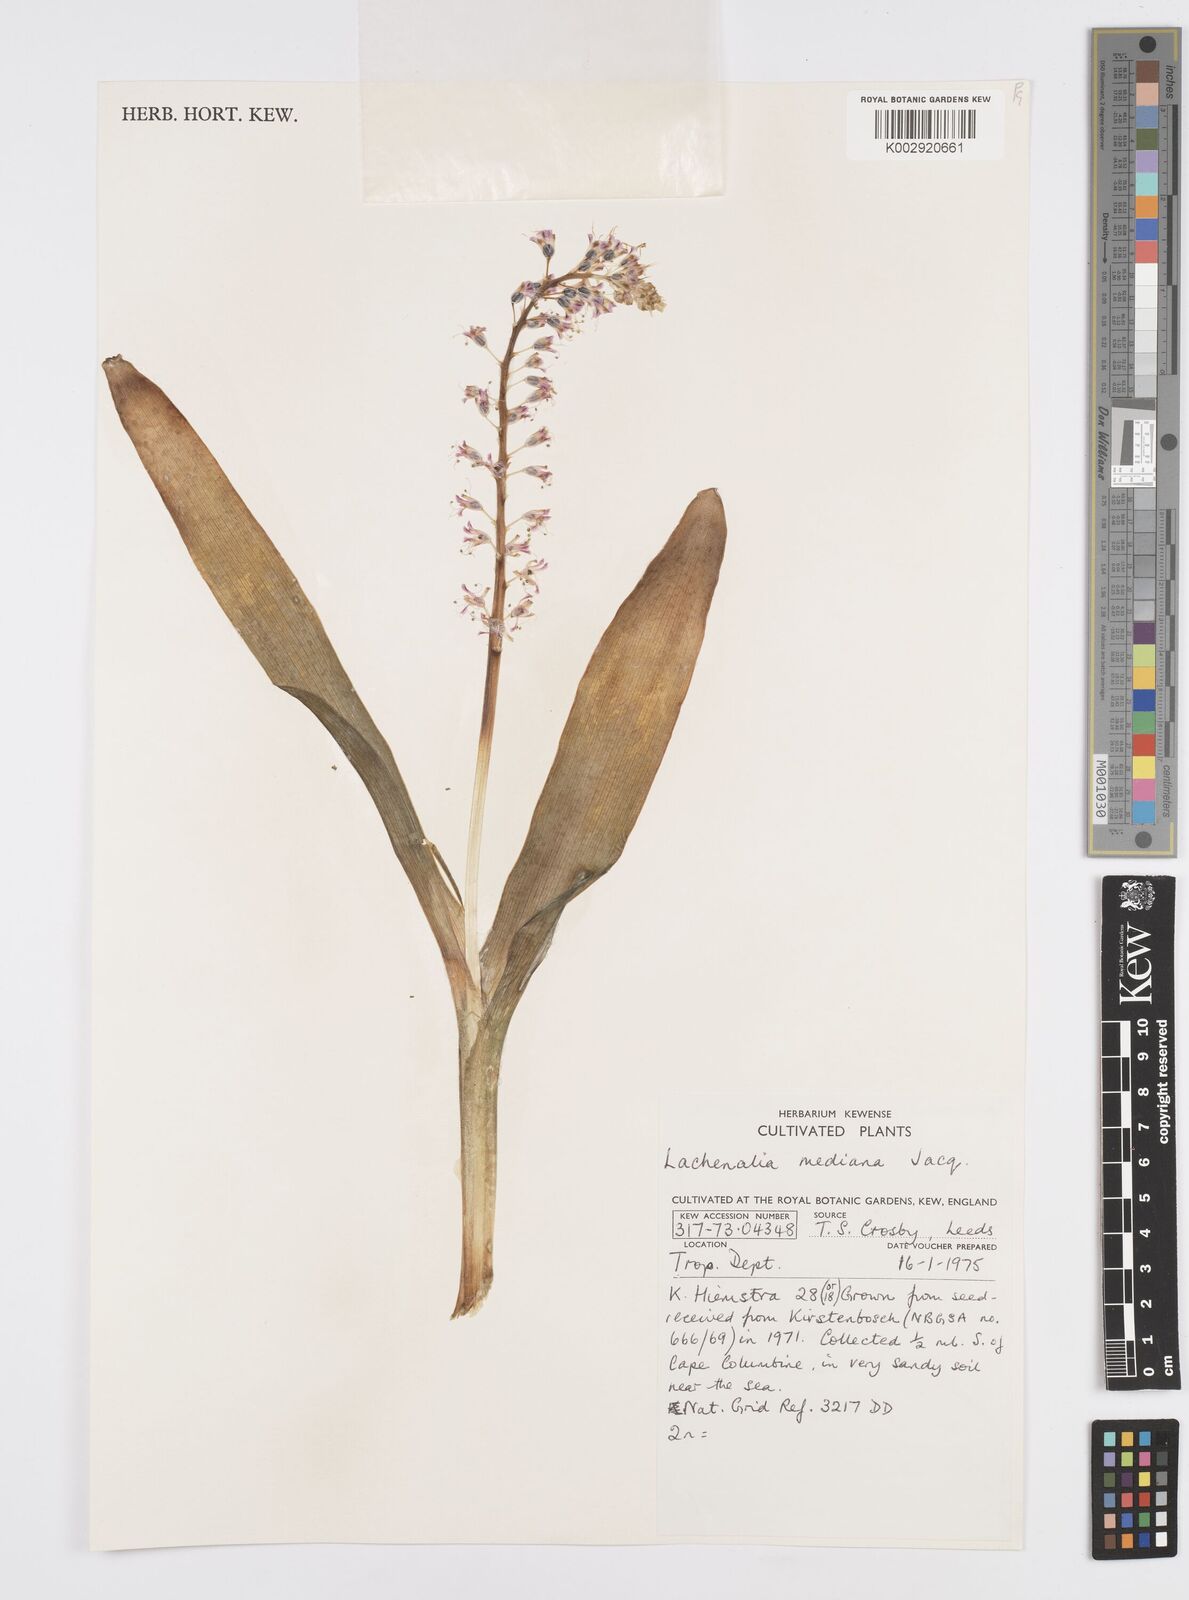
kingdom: Plantae
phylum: Tracheophyta
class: Liliopsida
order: Asparagales
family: Asparagaceae
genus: Lachenalia
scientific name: Lachenalia mediana
